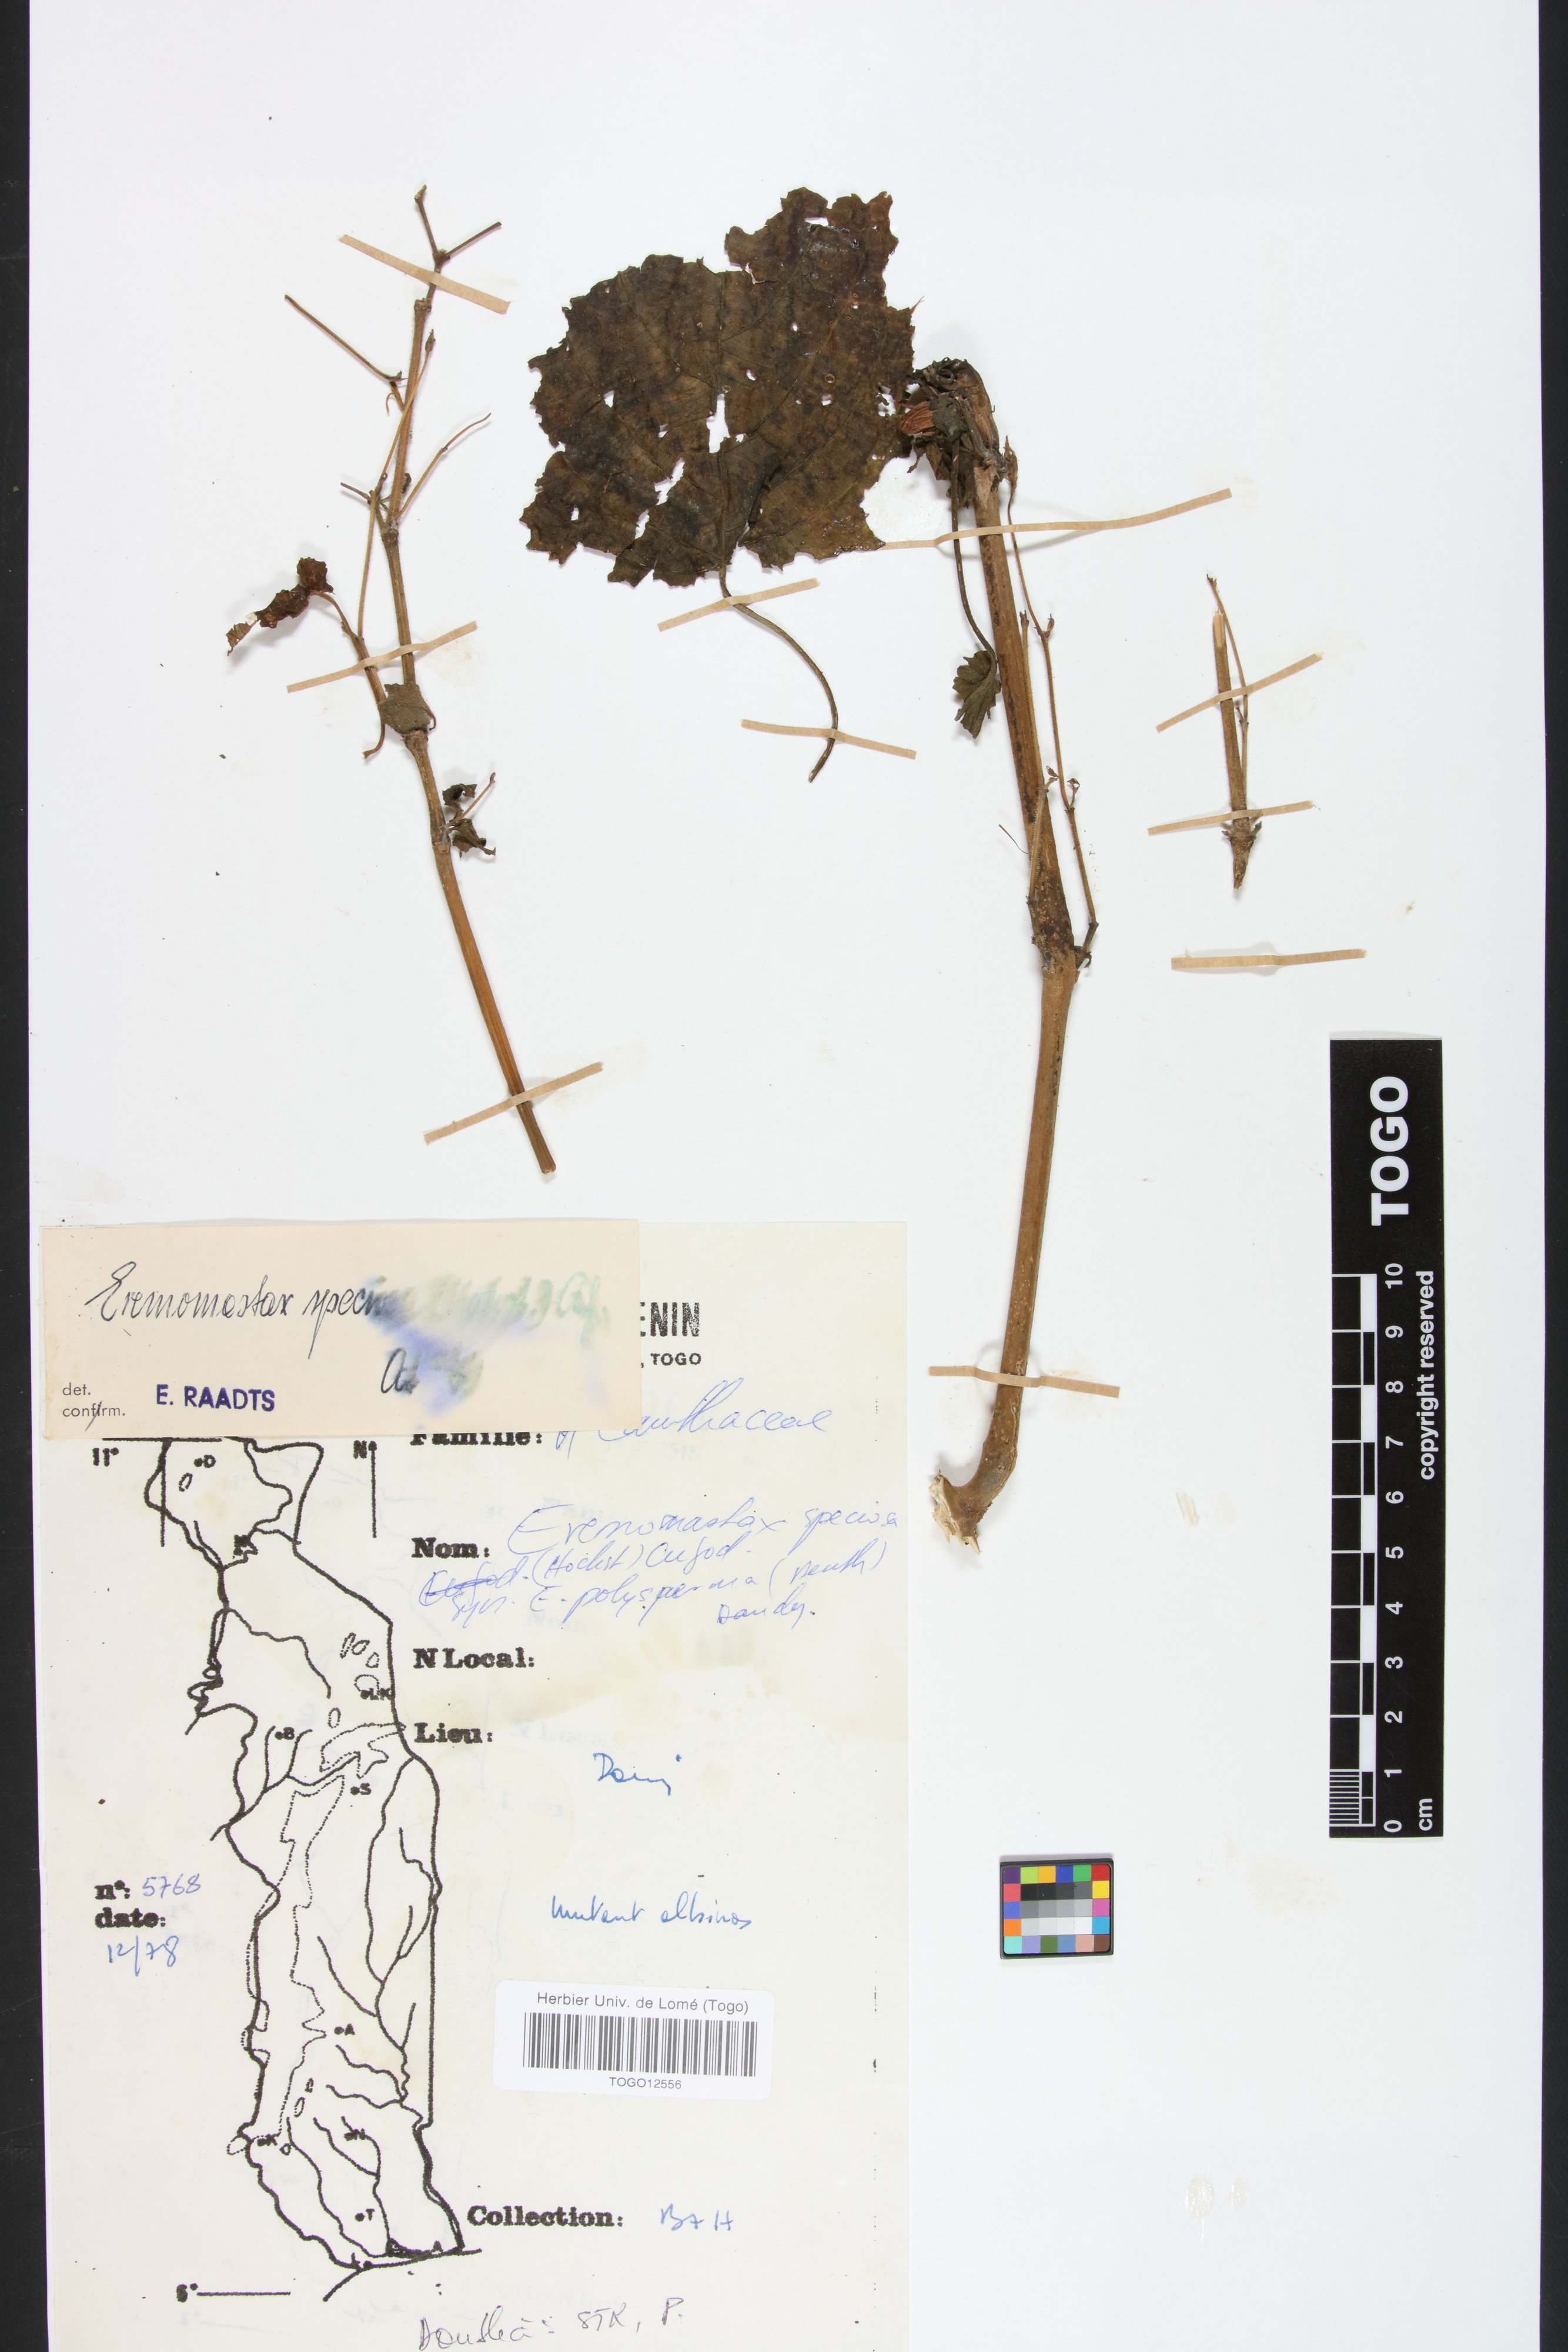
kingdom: Plantae
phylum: Tracheophyta
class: Magnoliopsida
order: Lamiales
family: Acanthaceae
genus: Eremomastax
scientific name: Eremomastax speciosa
